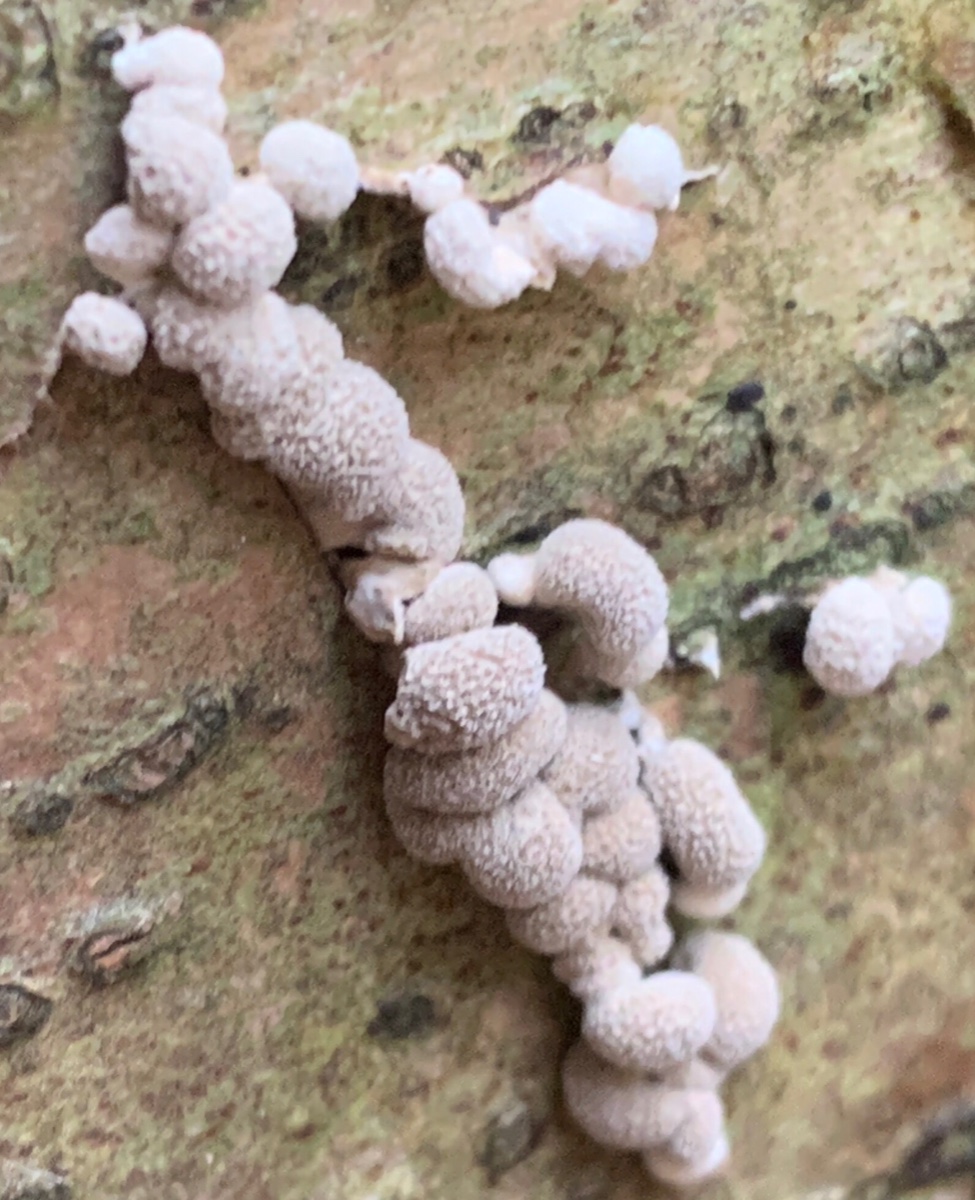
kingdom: Fungi
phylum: Ascomycota
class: Leotiomycetes
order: Helotiales
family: Cenangiaceae
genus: Encoelia
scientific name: Encoelia furfuracea
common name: hassel-læderskive
